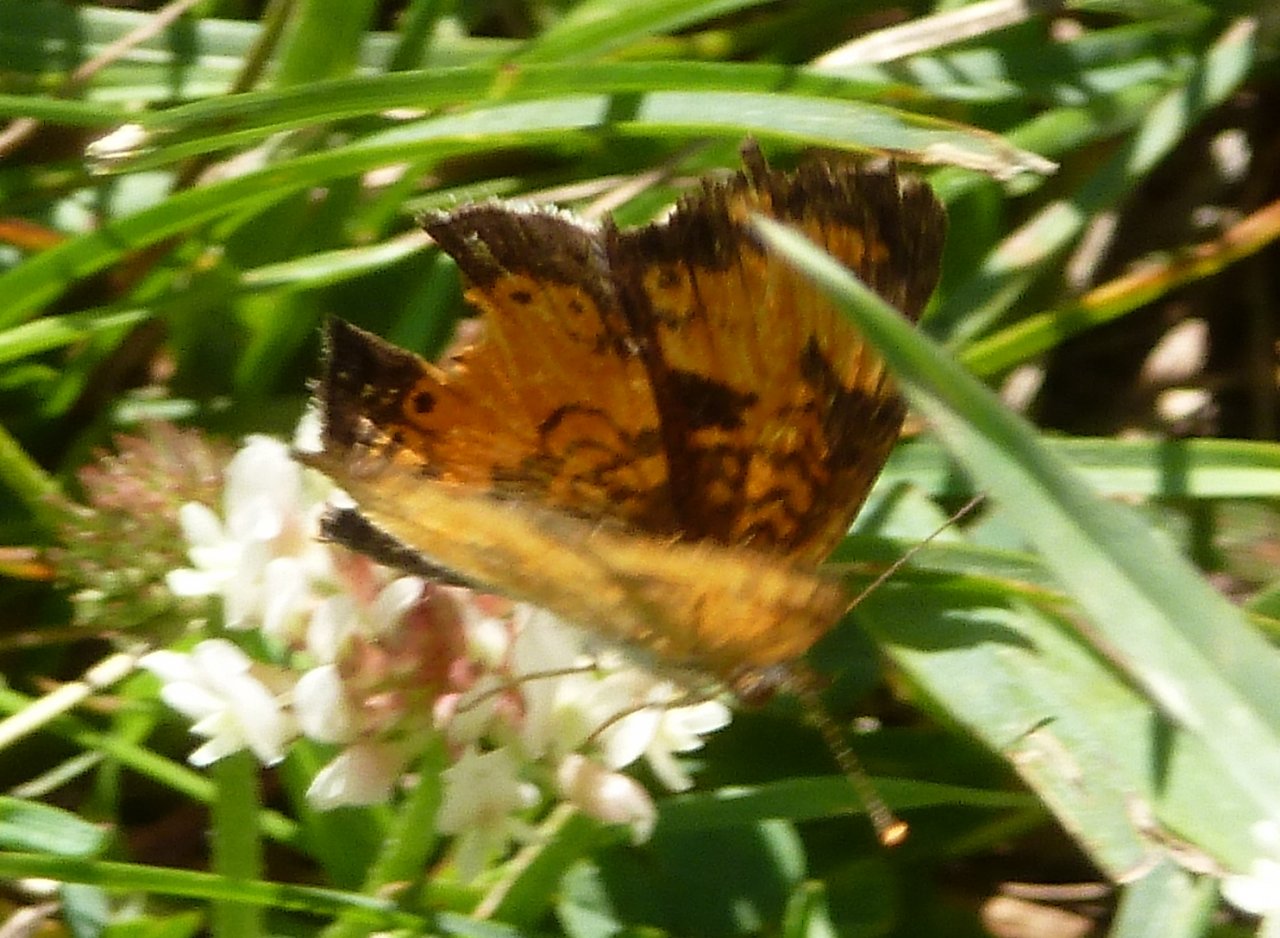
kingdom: Animalia
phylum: Arthropoda
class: Insecta
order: Lepidoptera
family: Nymphalidae
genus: Phyciodes
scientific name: Phyciodes tharos
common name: Northern Crescent
